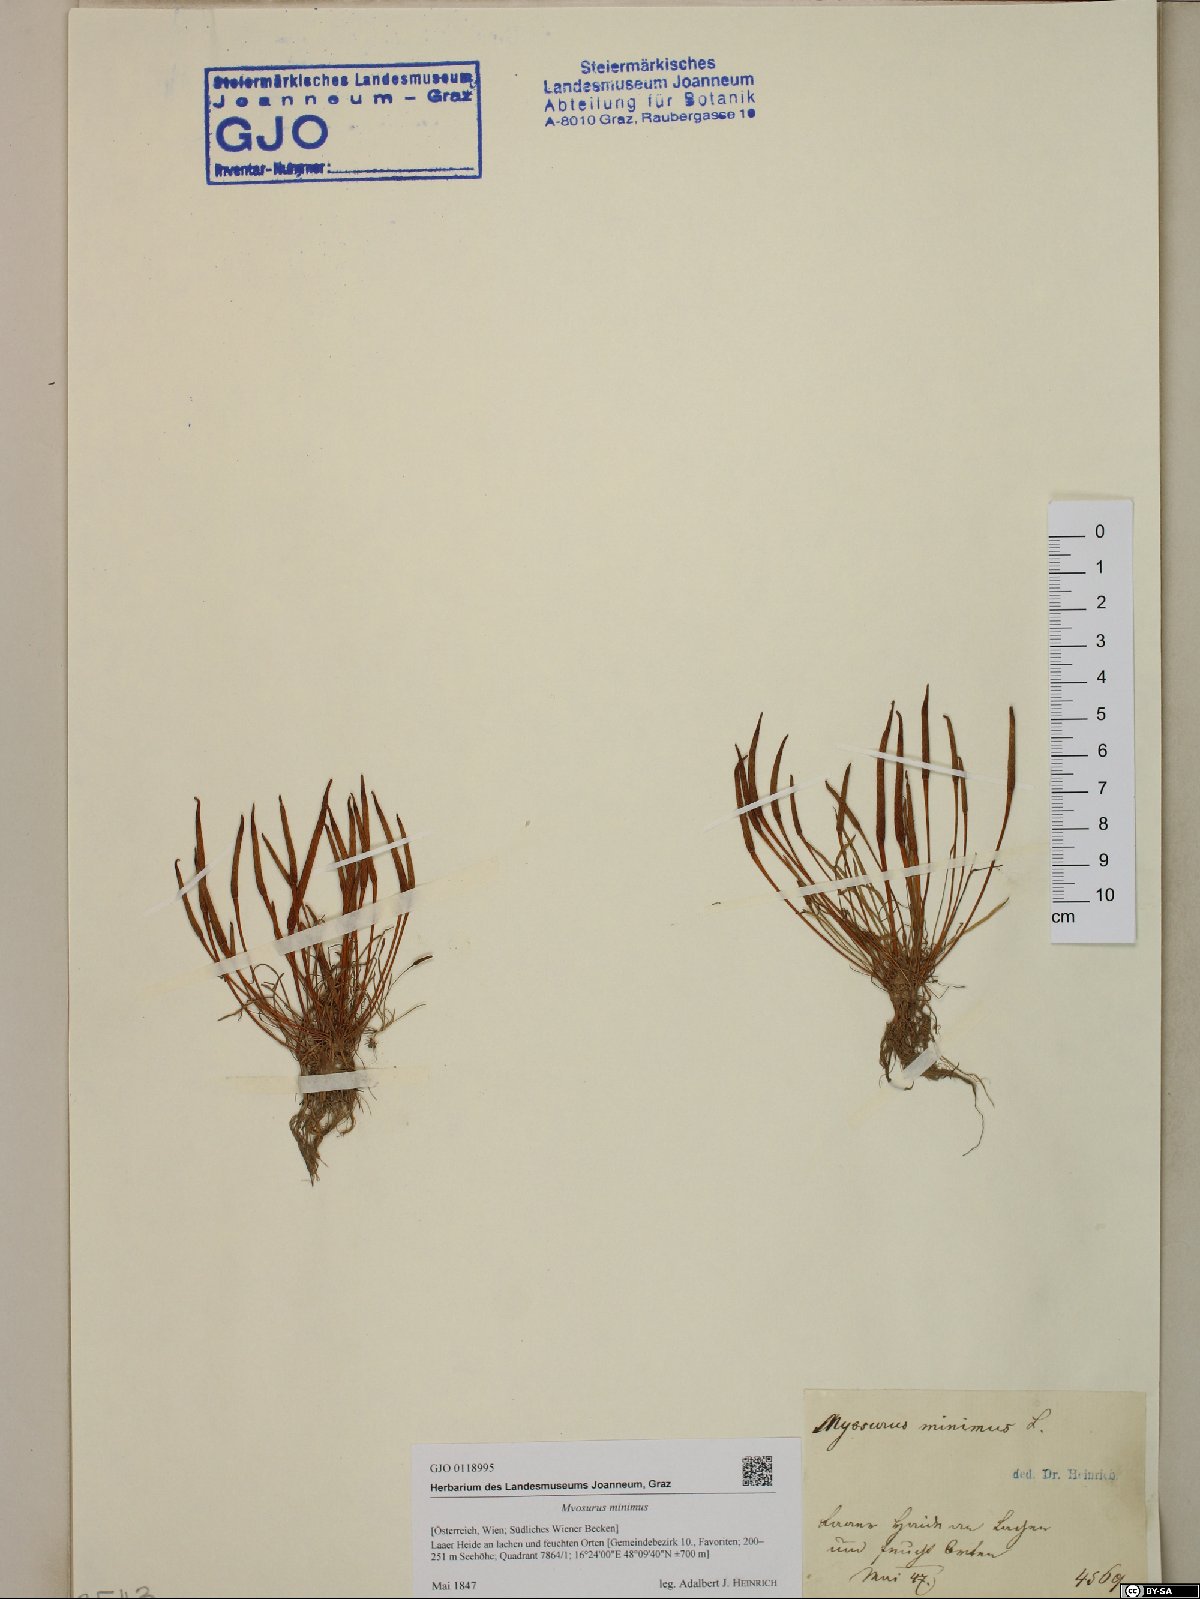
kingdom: Plantae
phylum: Tracheophyta
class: Magnoliopsida
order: Ranunculales
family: Ranunculaceae
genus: Myosurus
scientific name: Myosurus minimus
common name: Mousetail
